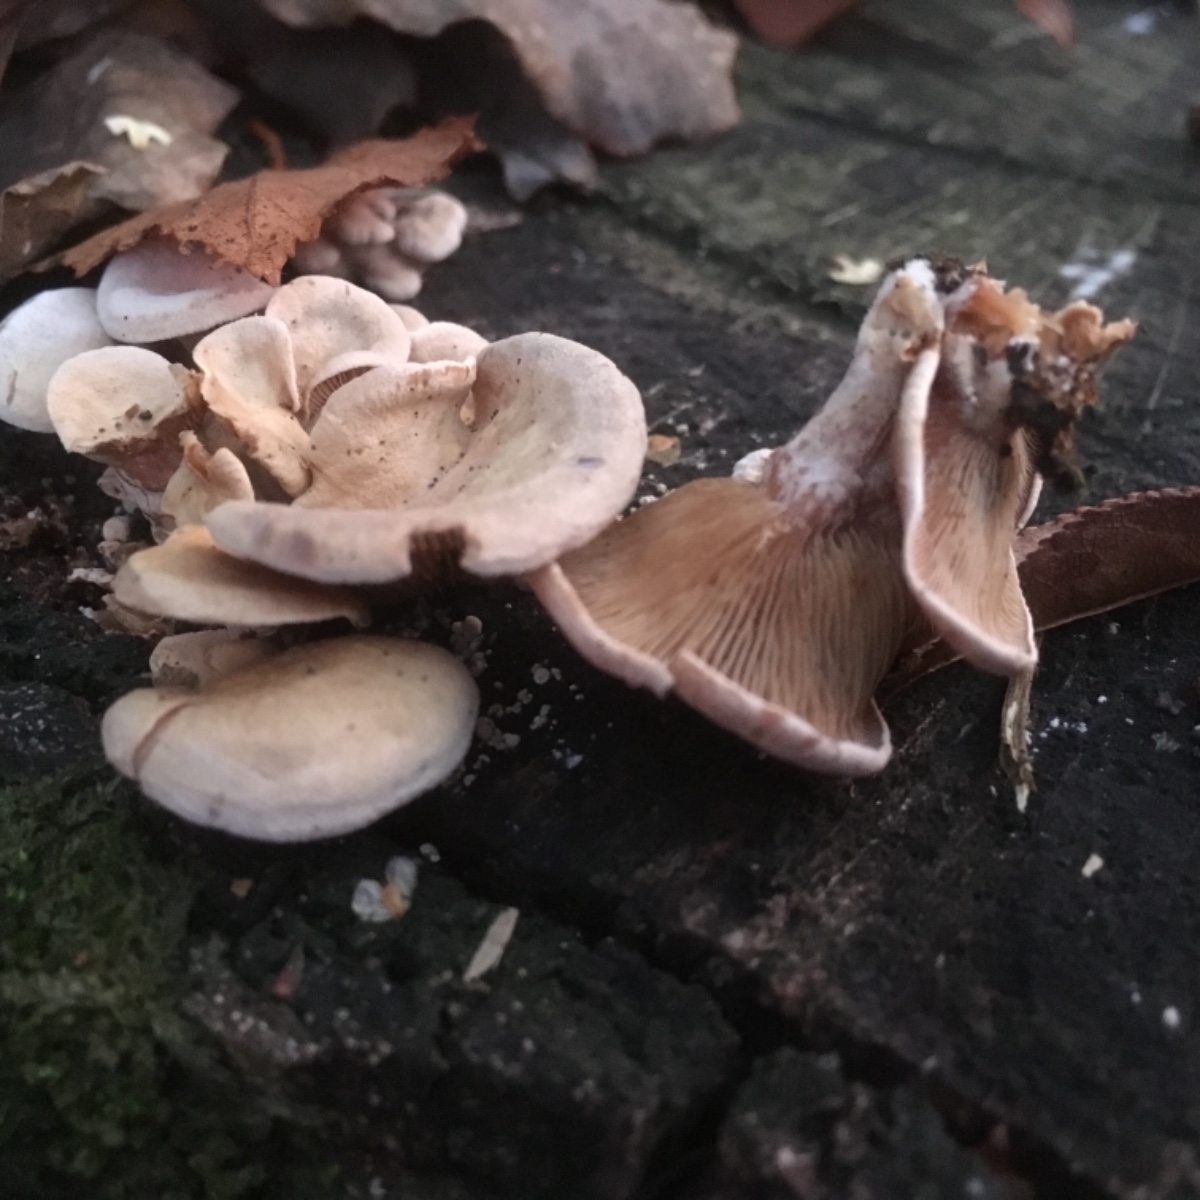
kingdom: Fungi
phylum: Basidiomycota
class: Agaricomycetes
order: Agaricales
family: Mycenaceae
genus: Panellus
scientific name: Panellus stipticus
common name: kliddet epaulethat
